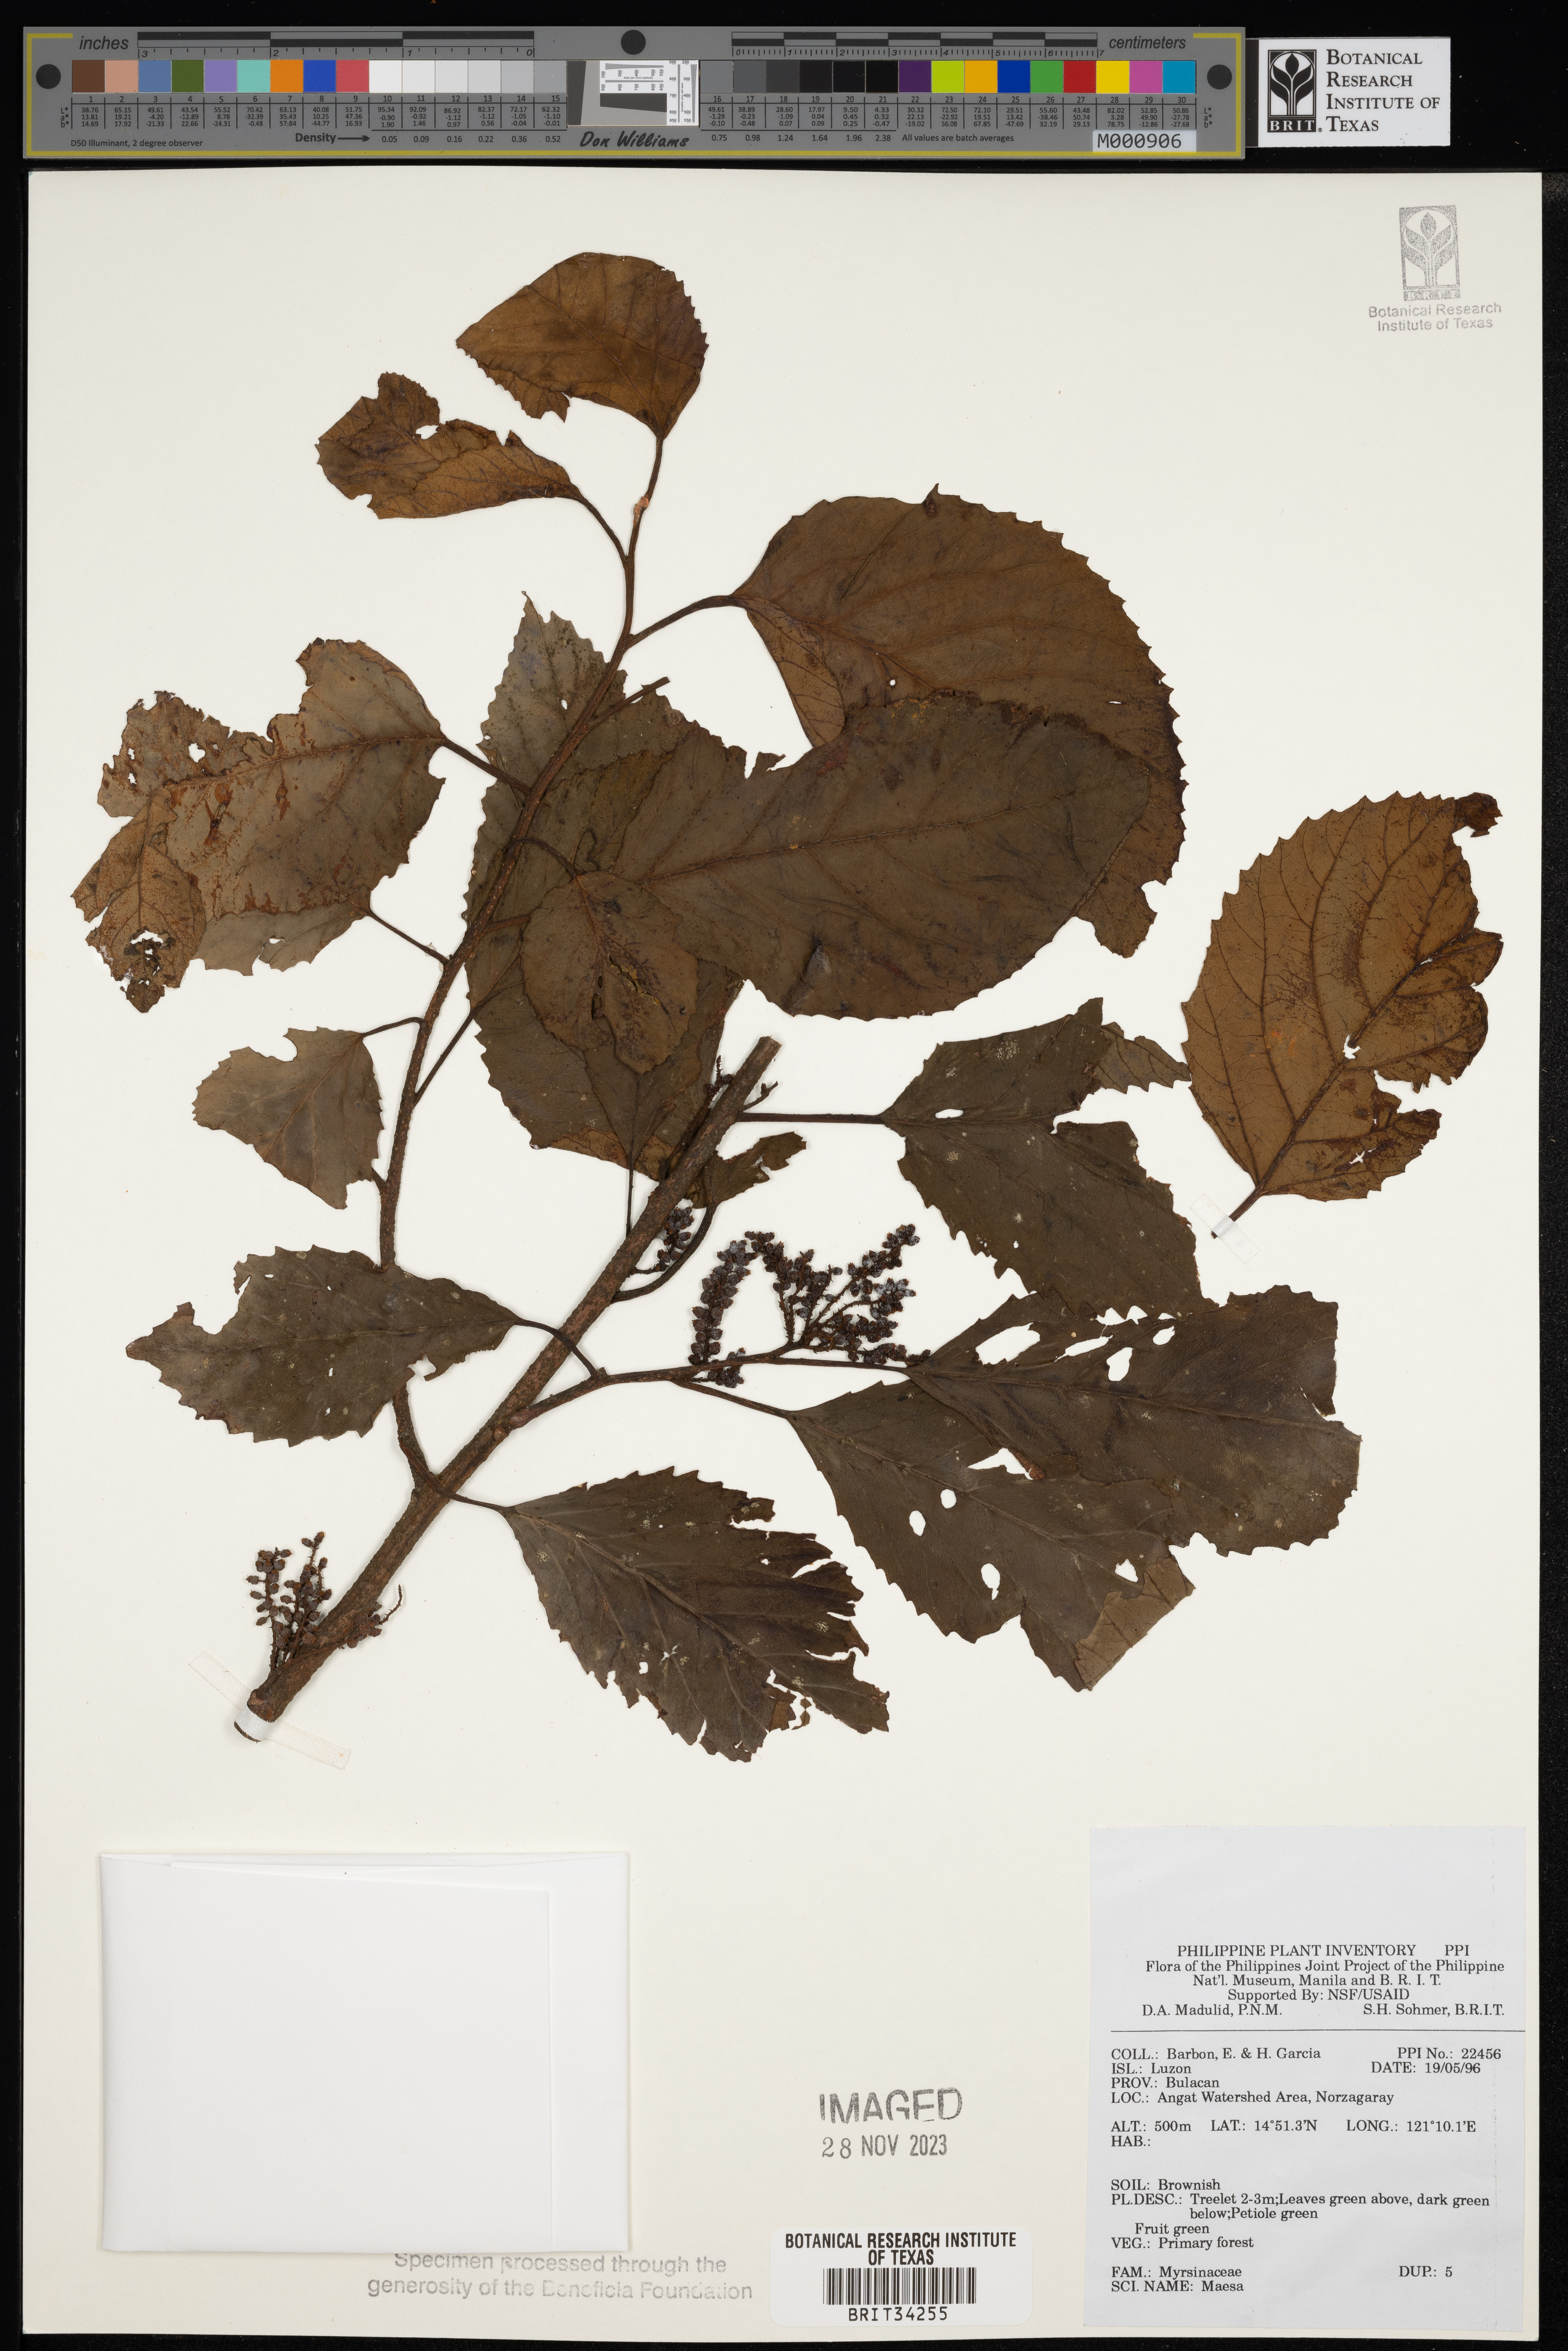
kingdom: Plantae
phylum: Tracheophyta
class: Magnoliopsida
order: Ericales
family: Primulaceae
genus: Maesa
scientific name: Maesa
